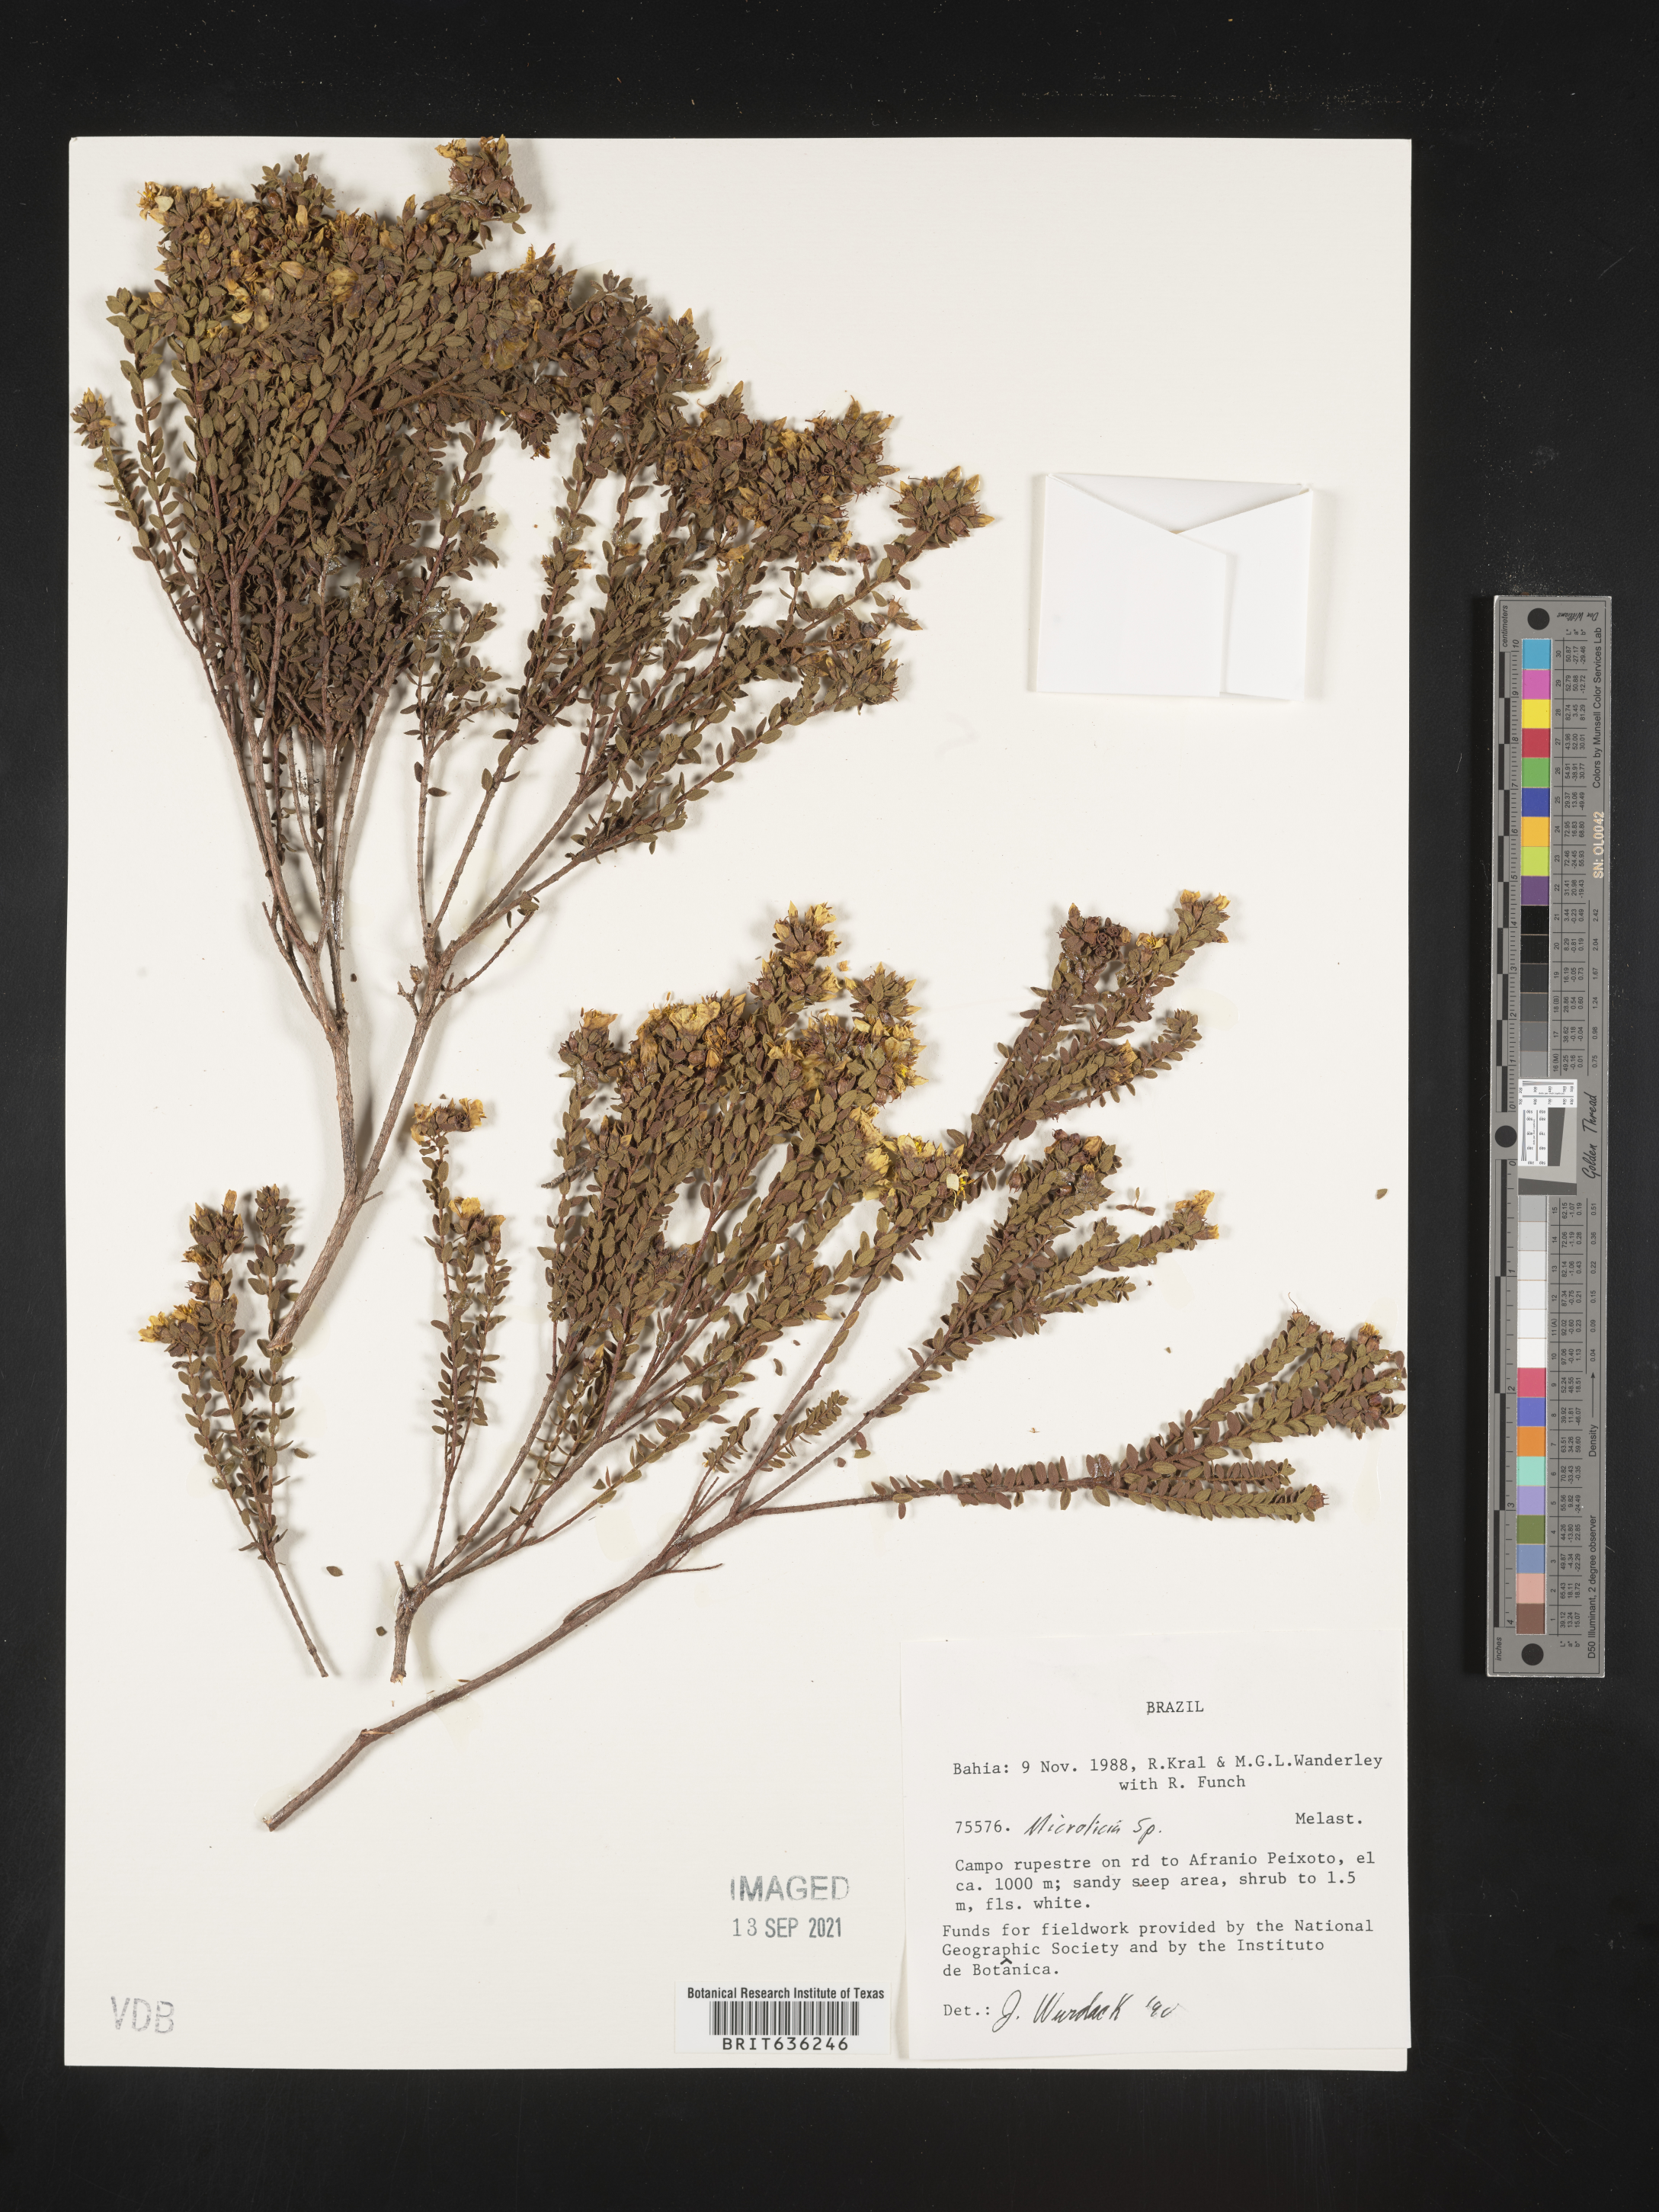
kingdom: Plantae
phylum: Tracheophyta
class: Magnoliopsida
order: Myrtales
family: Melastomataceae
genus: Microlicia
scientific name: Microlicia
